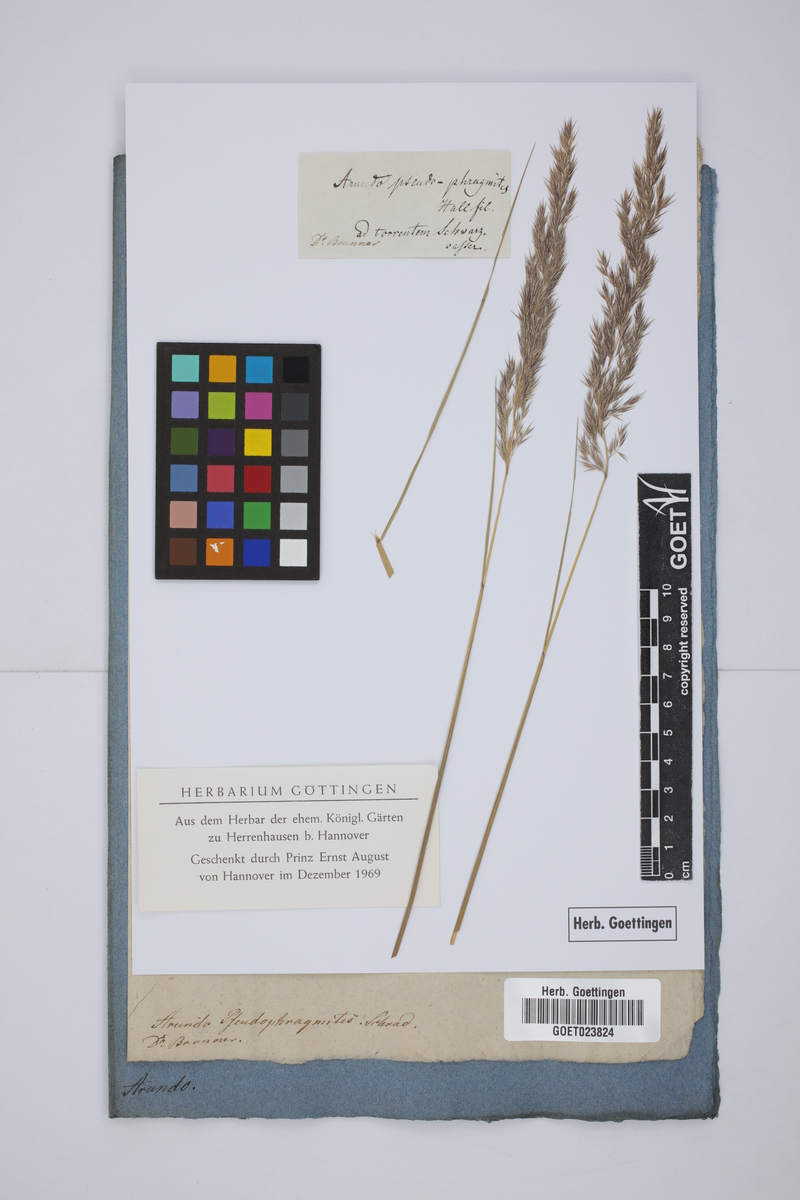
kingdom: Plantae
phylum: Tracheophyta
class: Liliopsida
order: Poales
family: Poaceae
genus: Calamagrostis
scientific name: Calamagrostis pseudophragmites
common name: Coastal small-reed
